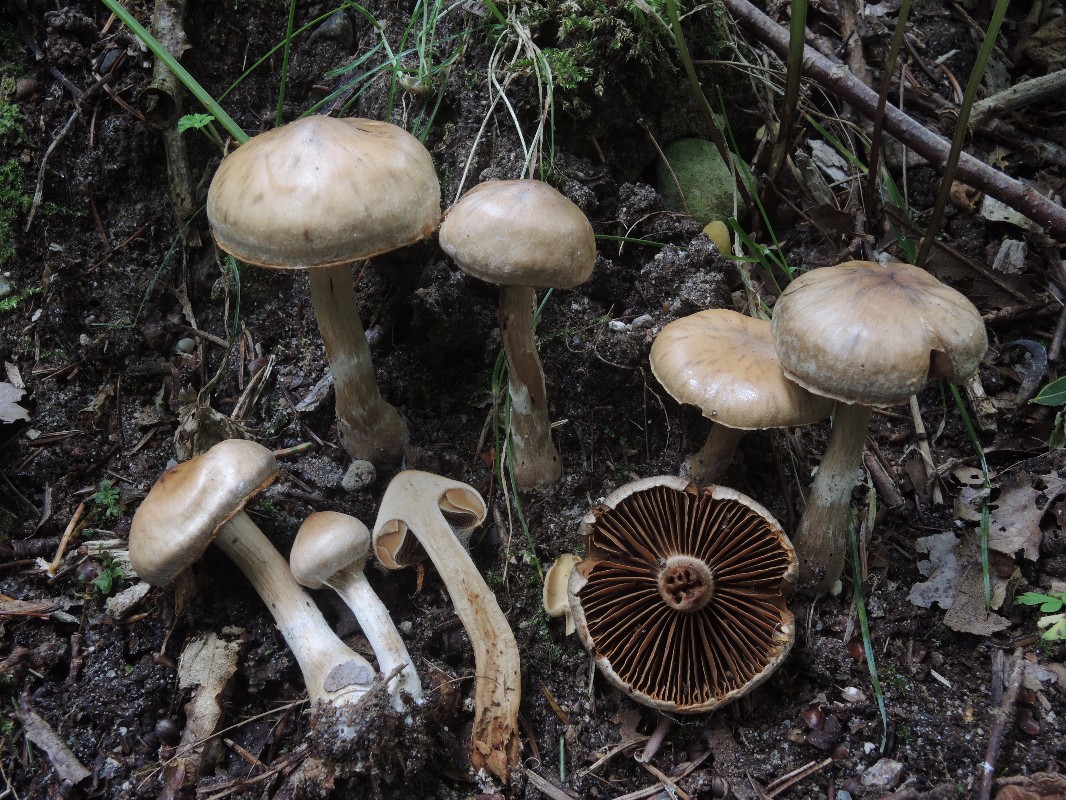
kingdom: Fungi
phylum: Basidiomycota
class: Agaricomycetes
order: Agaricales
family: Cortinariaceae
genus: Cortinarius
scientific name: Cortinarius hinnuleus
